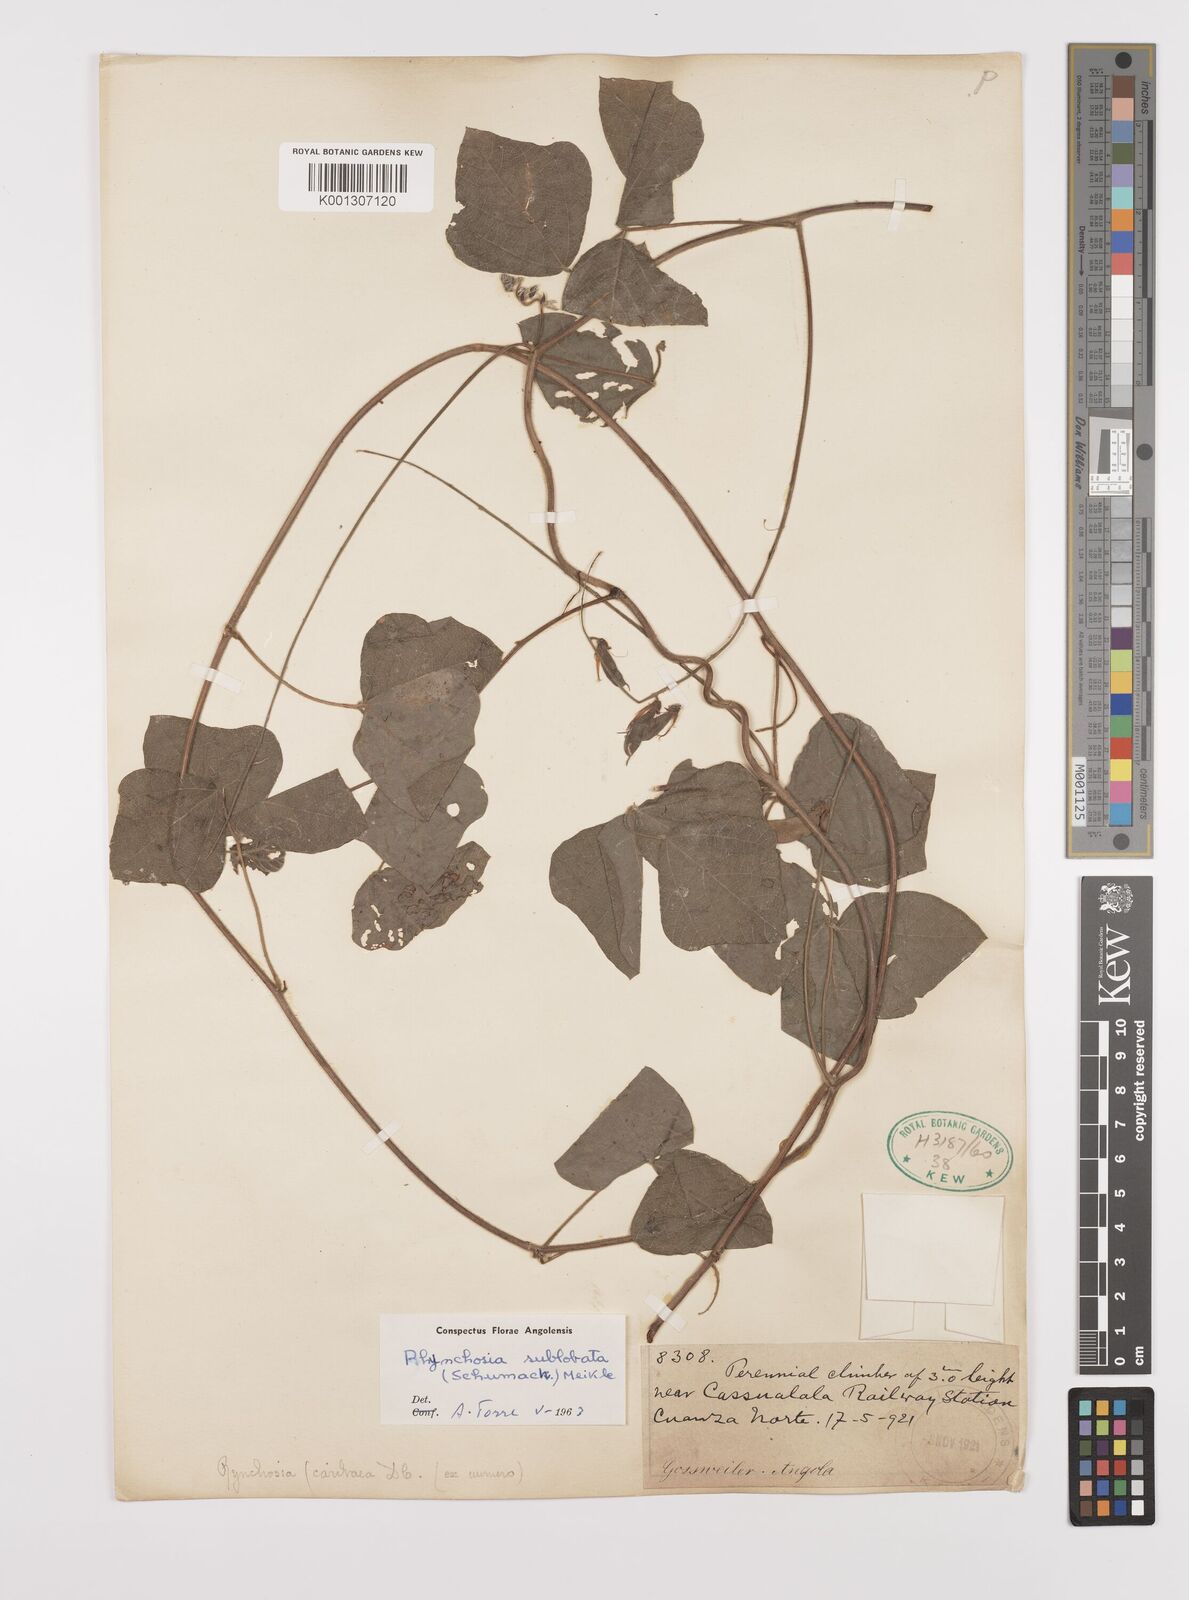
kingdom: Plantae
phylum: Tracheophyta
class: Magnoliopsida
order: Fabales
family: Fabaceae
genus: Rhynchosia
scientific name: Rhynchosia sublobata
